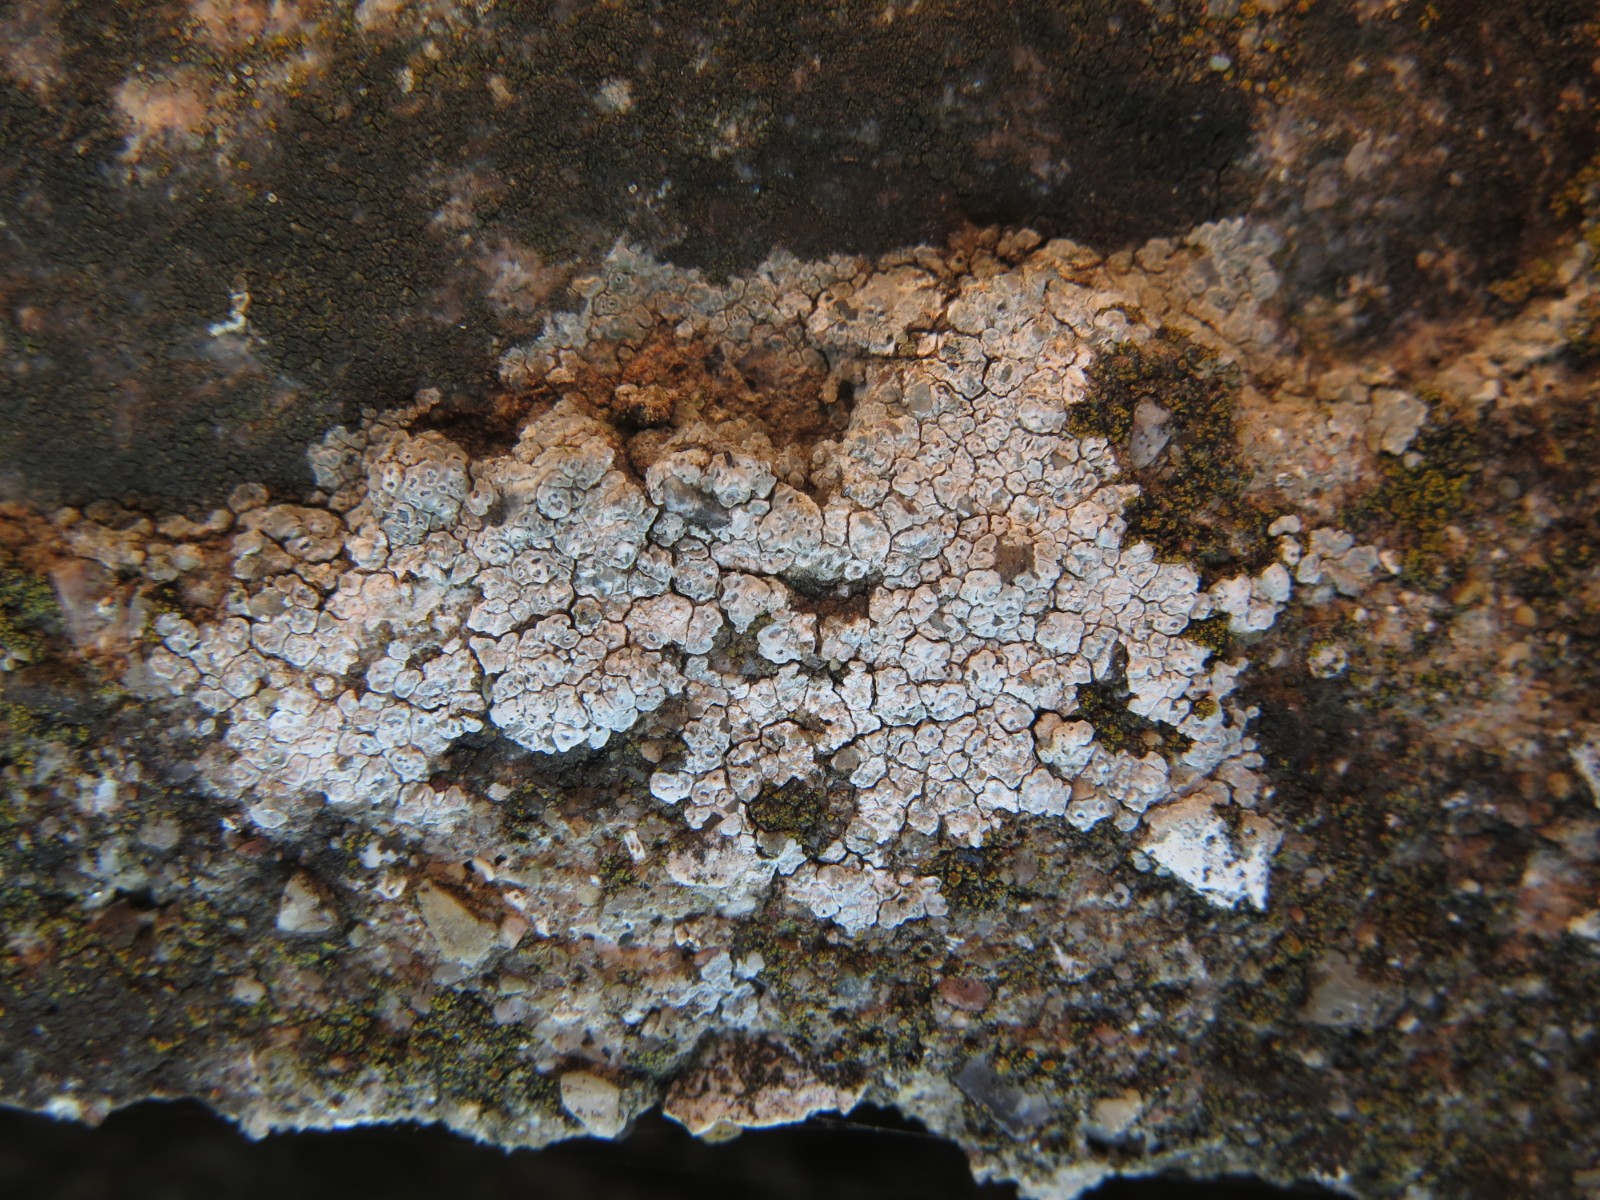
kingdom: Fungi
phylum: Ascomycota
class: Lecanoromycetes
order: Pertusariales
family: Megasporaceae
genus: Circinaria
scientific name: Circinaria contorta
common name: indviklet hulskivelav
